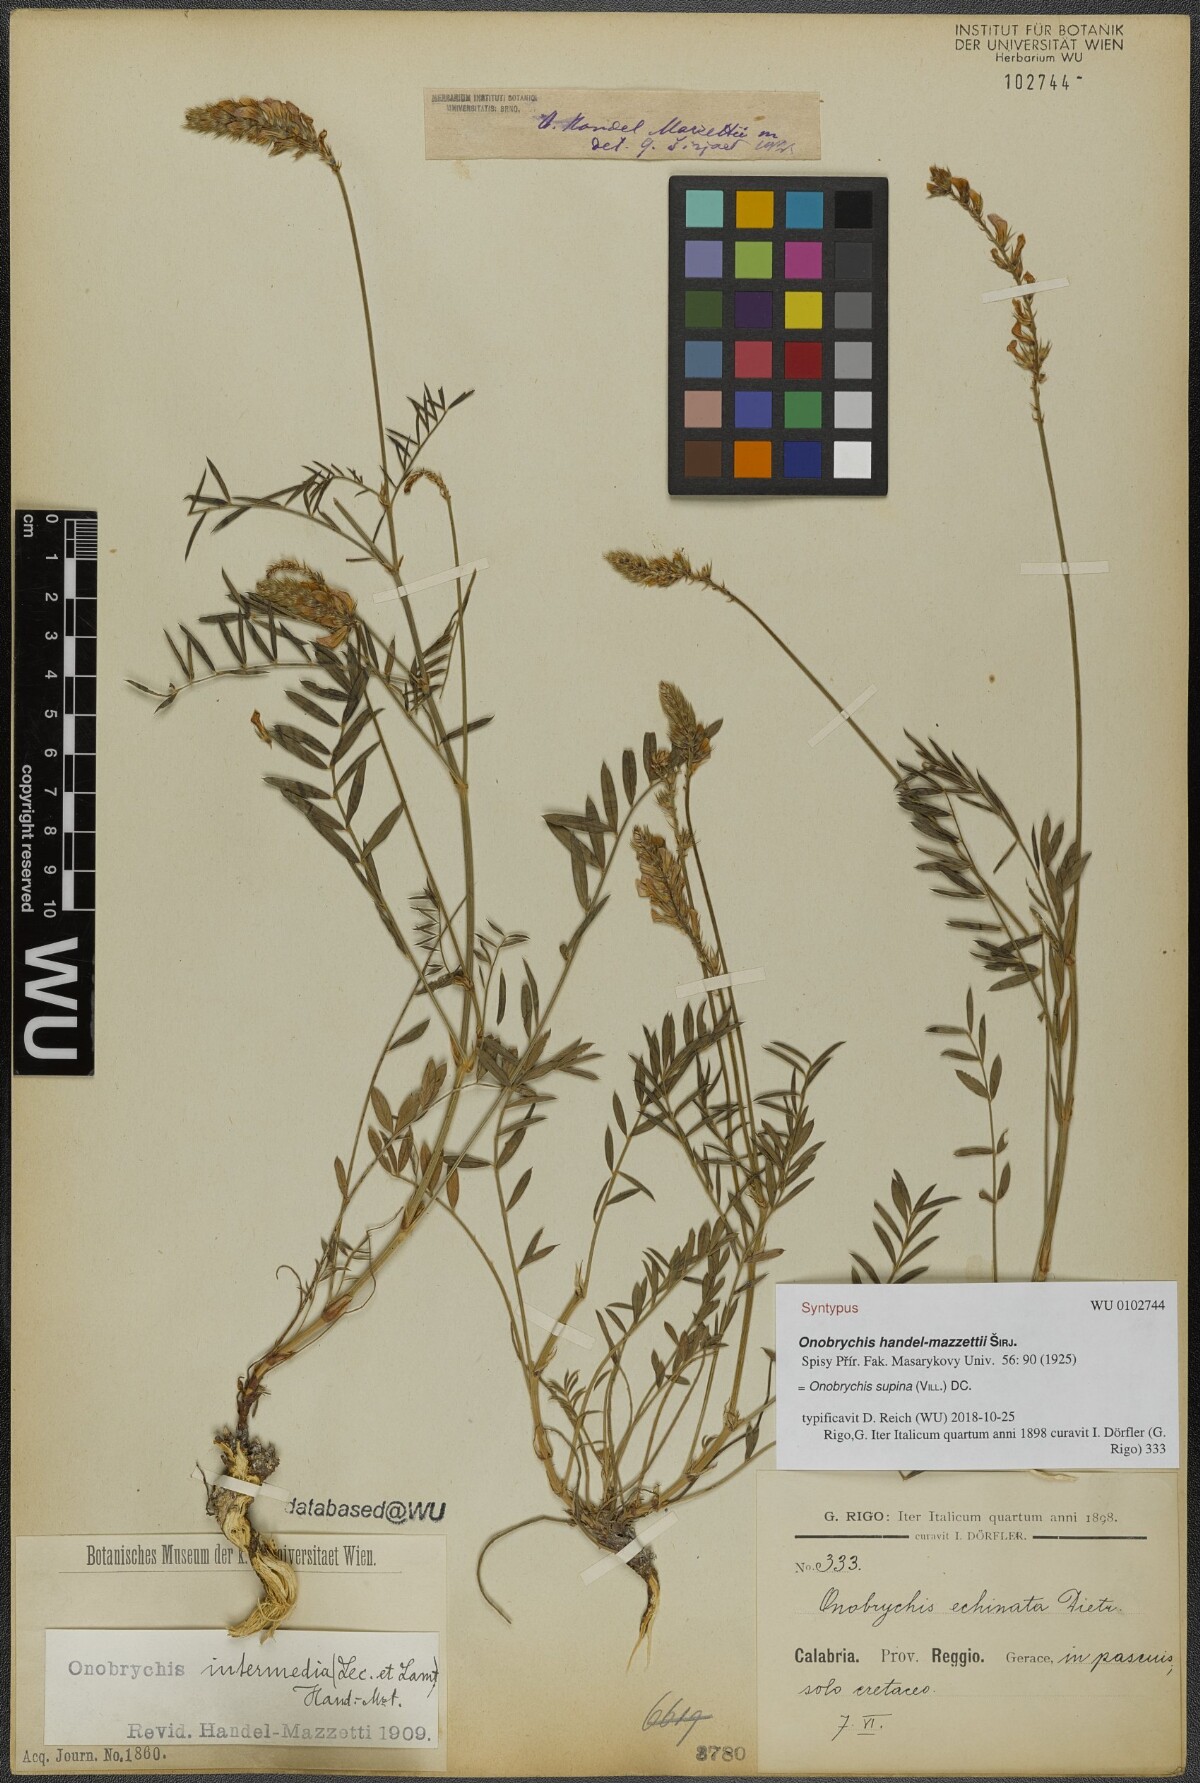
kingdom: Plantae
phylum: Tracheophyta
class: Magnoliopsida
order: Fabales
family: Fabaceae
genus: Onobrychis
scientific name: Onobrychis supina
